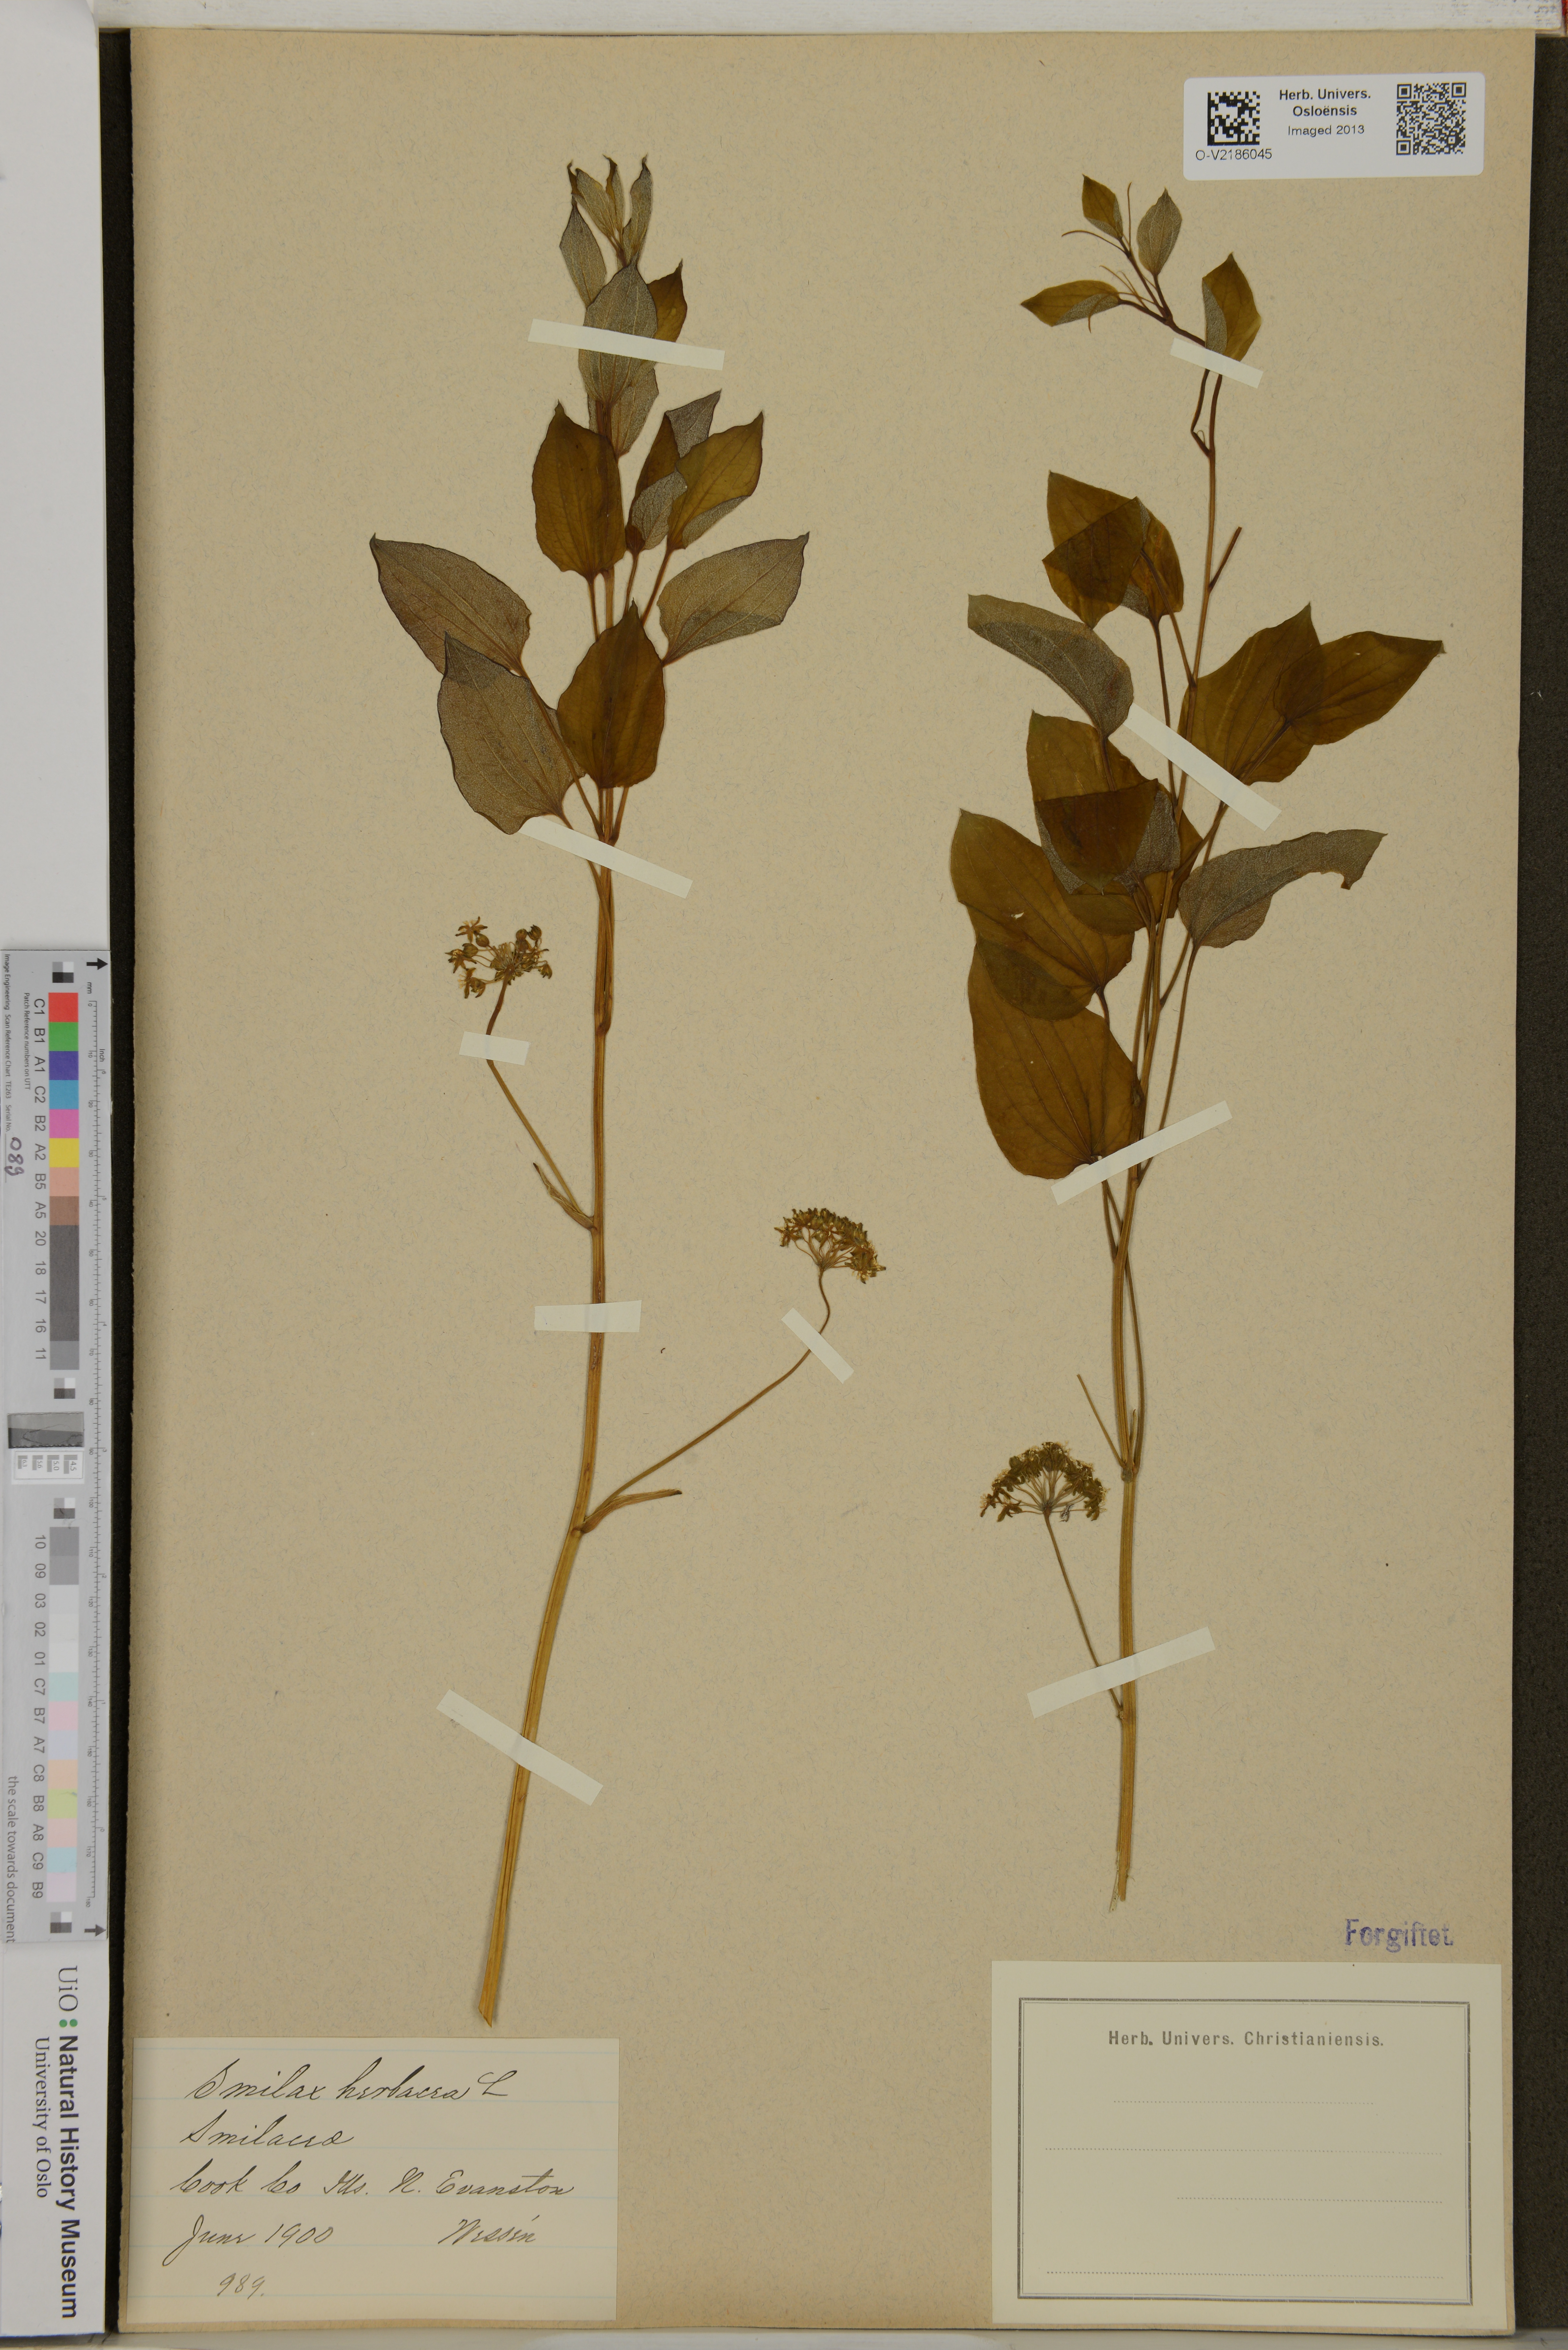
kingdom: Plantae
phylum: Tracheophyta
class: Liliopsida
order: Liliales
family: Smilacaceae
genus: Smilax
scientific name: Smilax herbacea
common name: Jacob's-ladder
